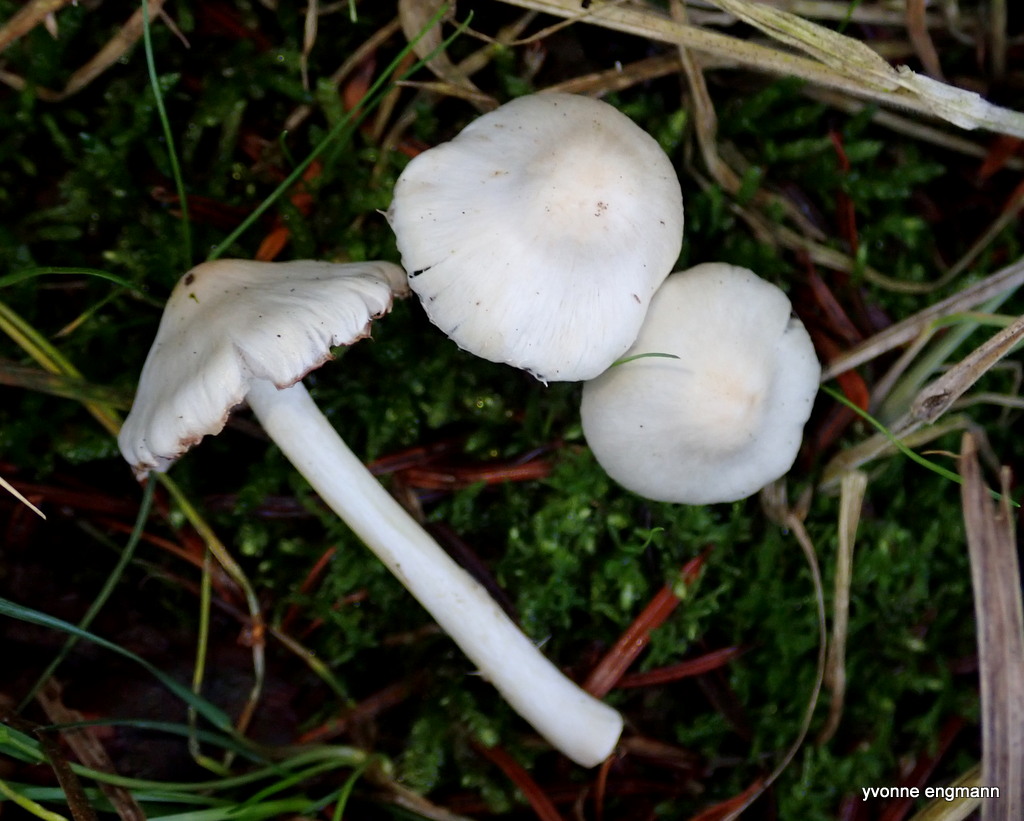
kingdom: Fungi
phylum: Basidiomycota
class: Agaricomycetes
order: Agaricales
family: Inocybaceae
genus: Inocybe
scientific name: Inocybe
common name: almindelig trævlhat
